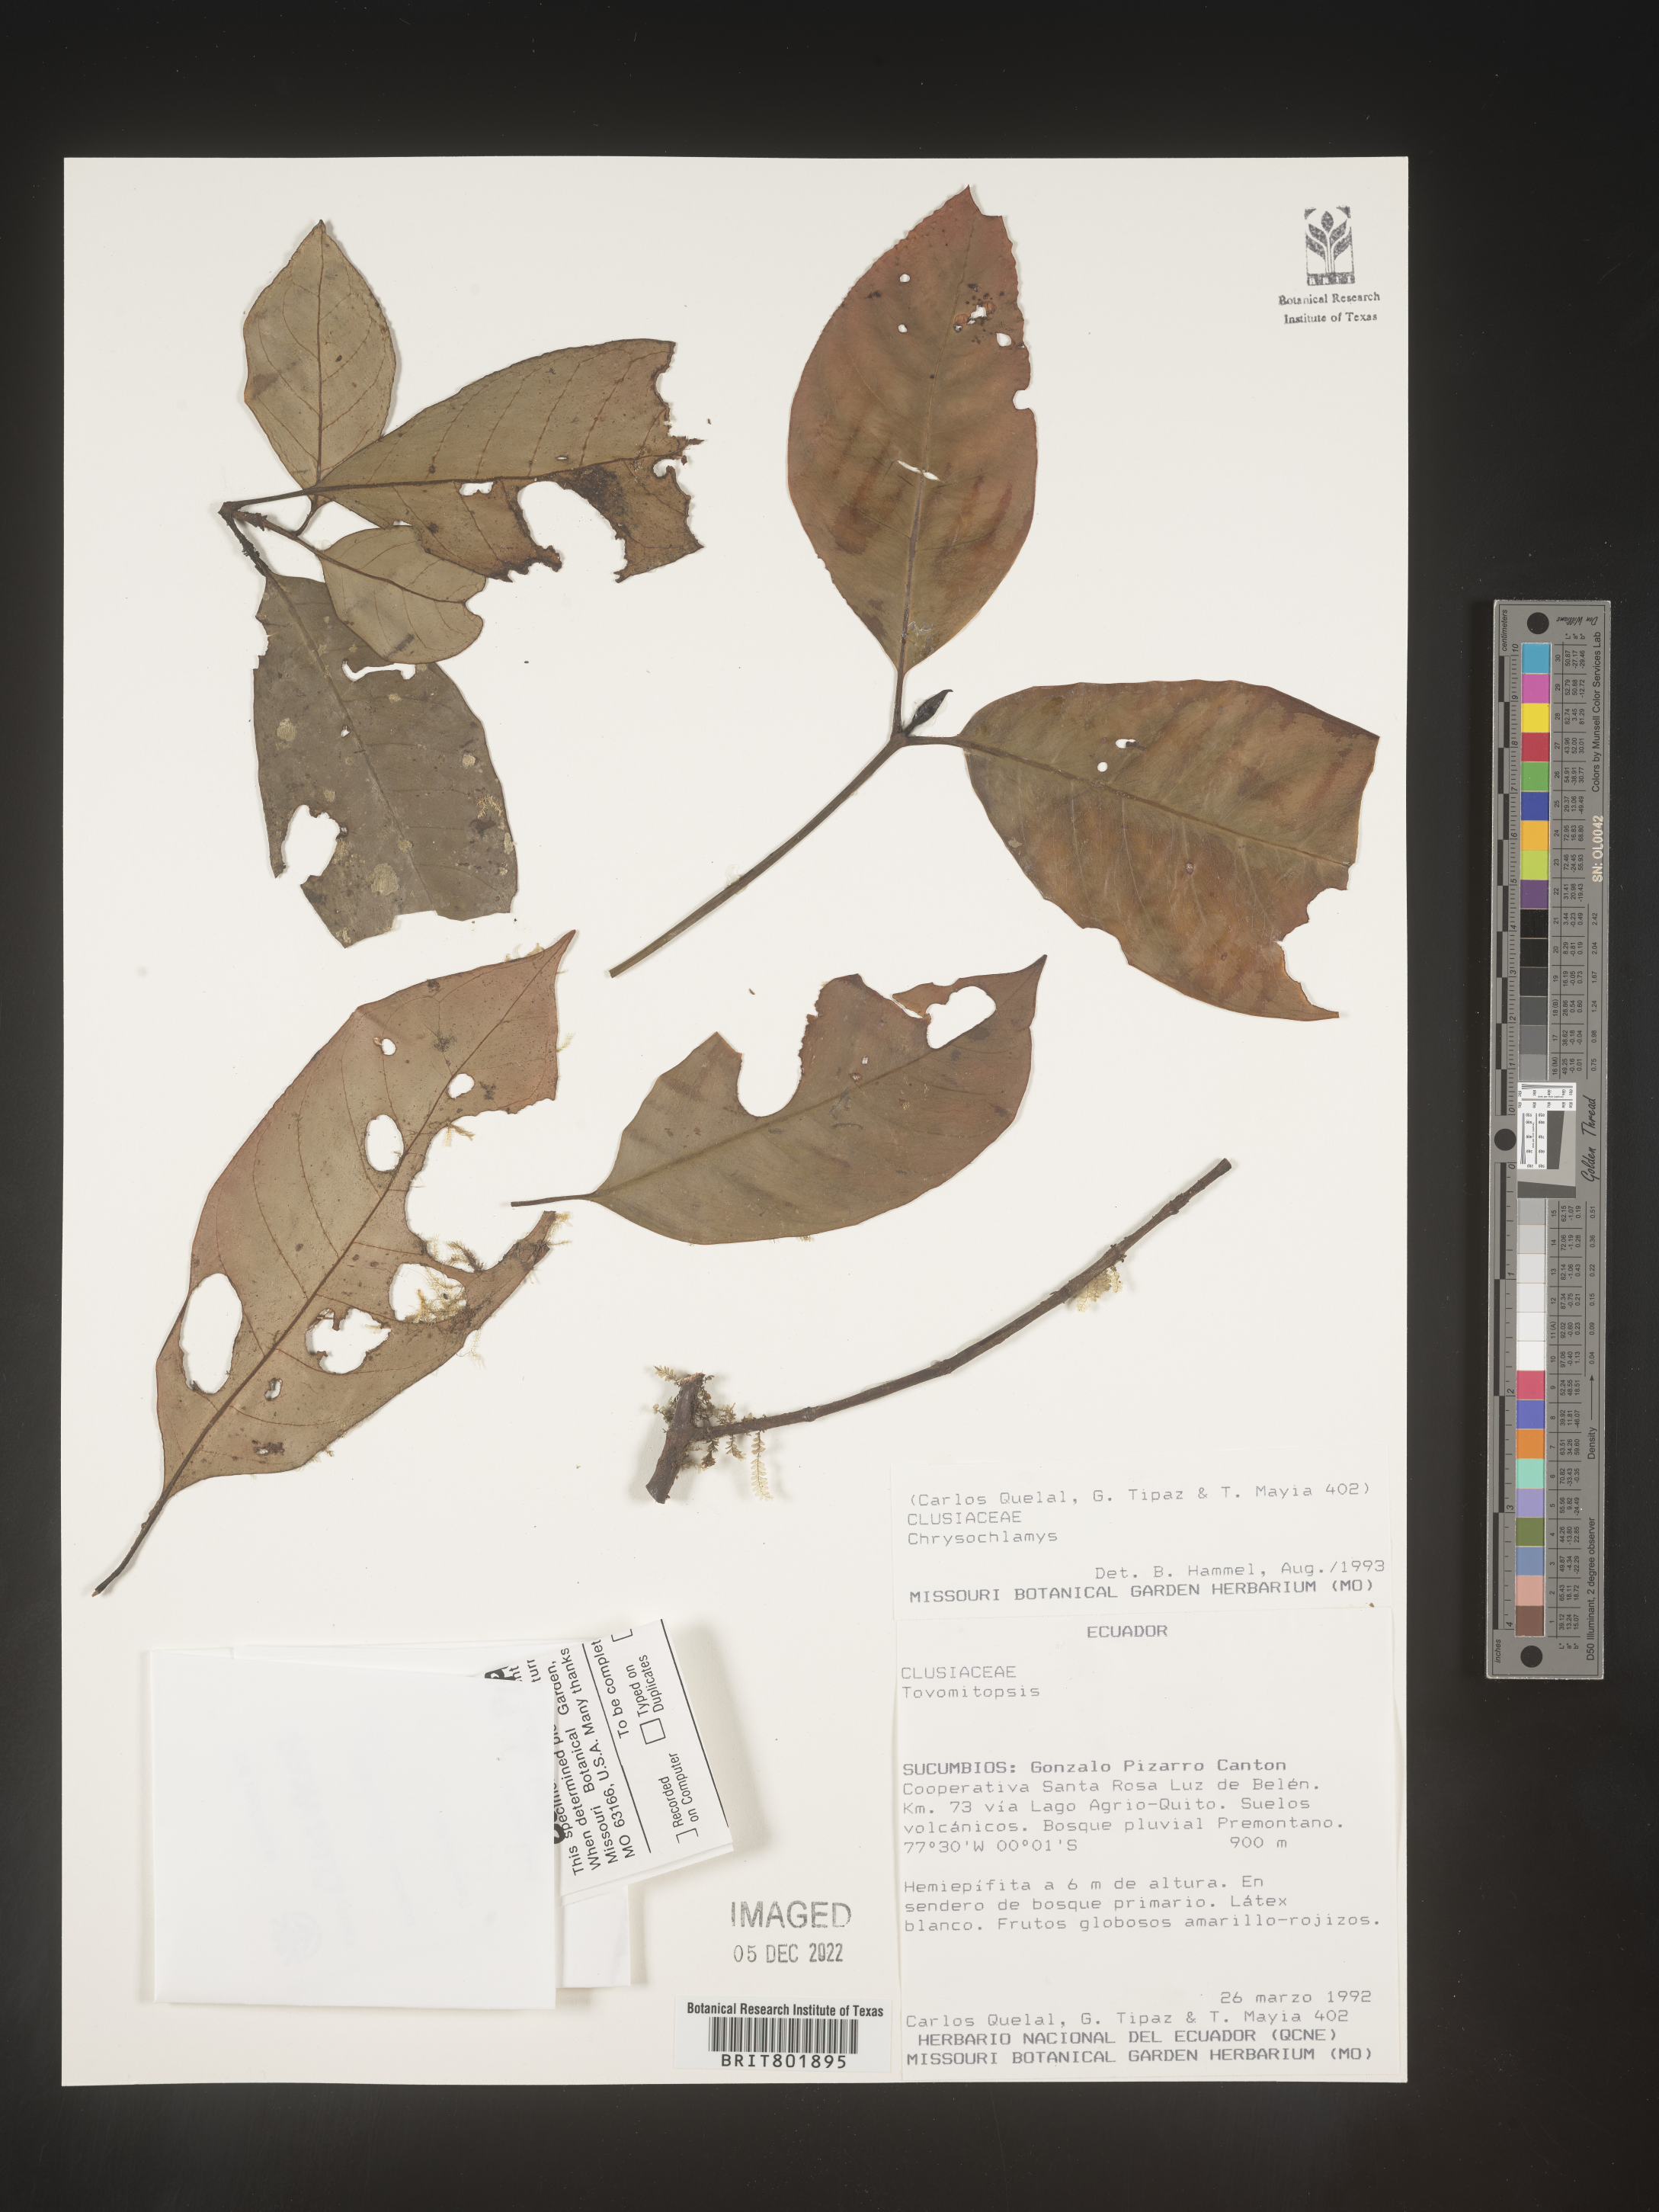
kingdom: Plantae
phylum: Tracheophyta
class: Magnoliopsida
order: Malpighiales
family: Clusiaceae
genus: Chrysochlamys
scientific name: Chrysochlamys
